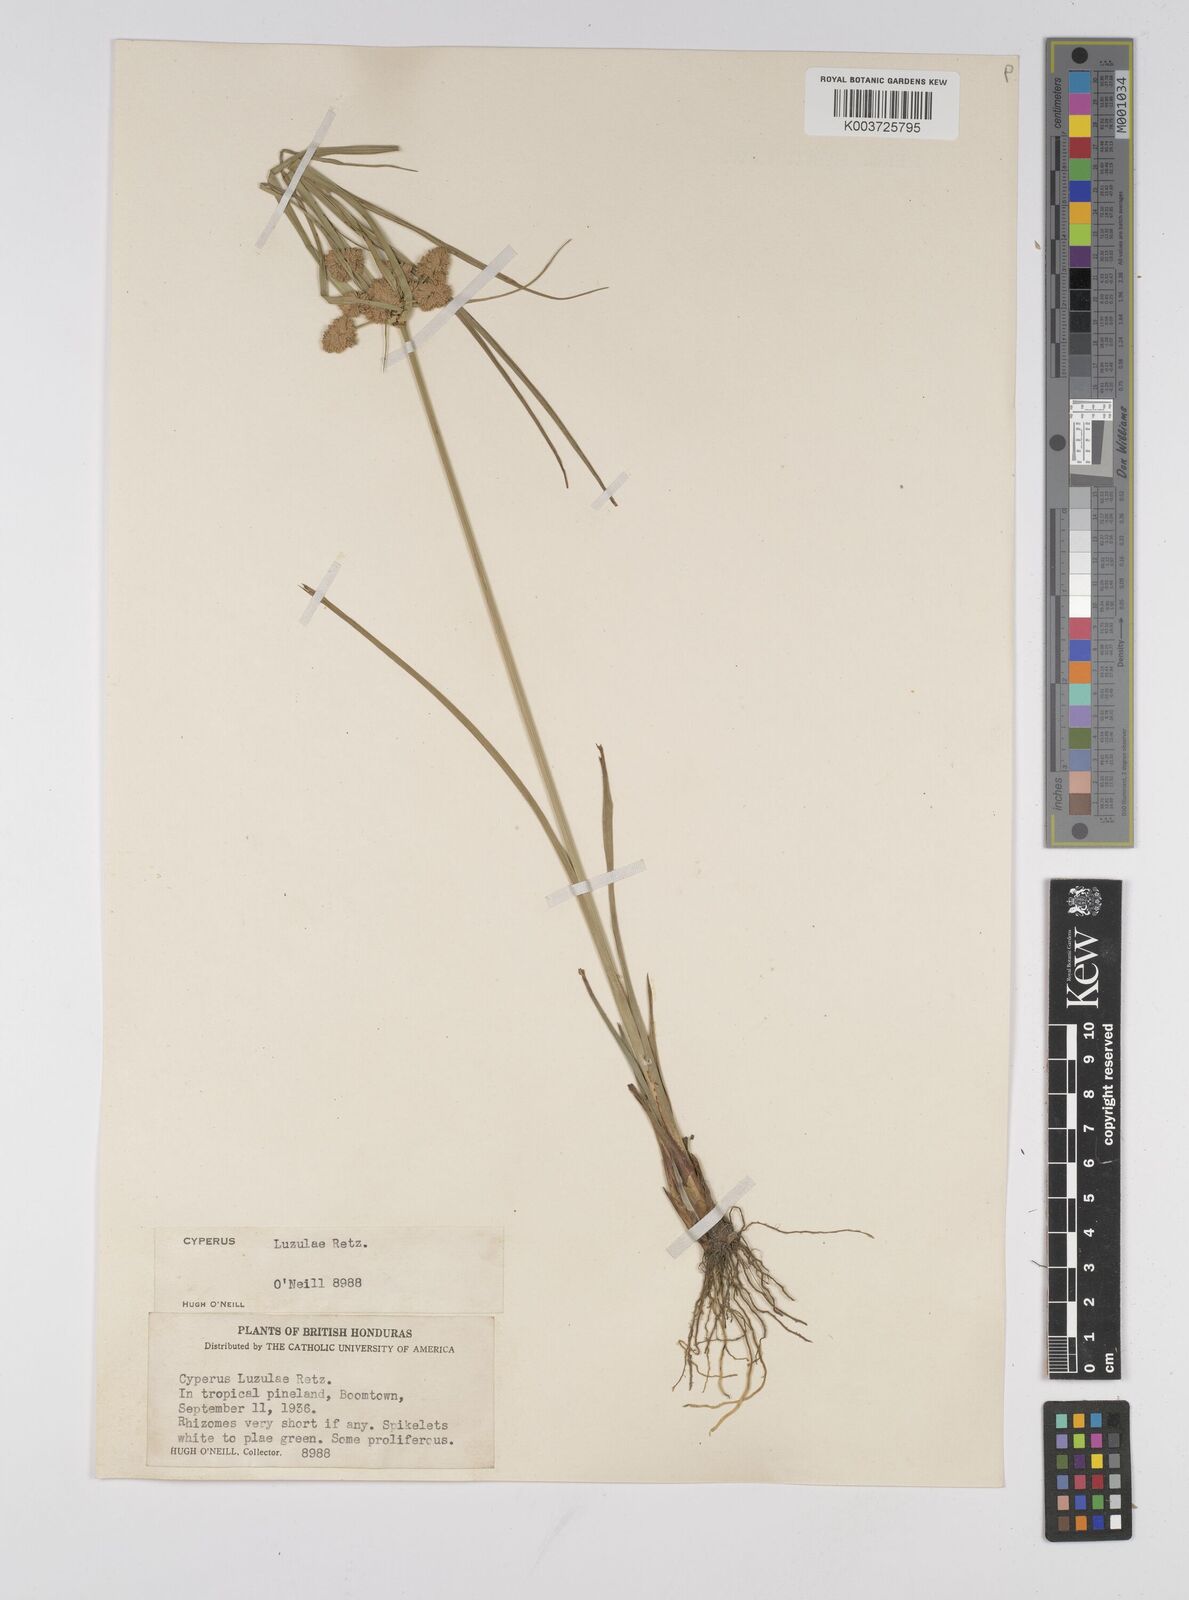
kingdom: Plantae
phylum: Tracheophyta
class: Liliopsida
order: Poales
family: Cyperaceae
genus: Cyperus
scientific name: Cyperus luzulae
